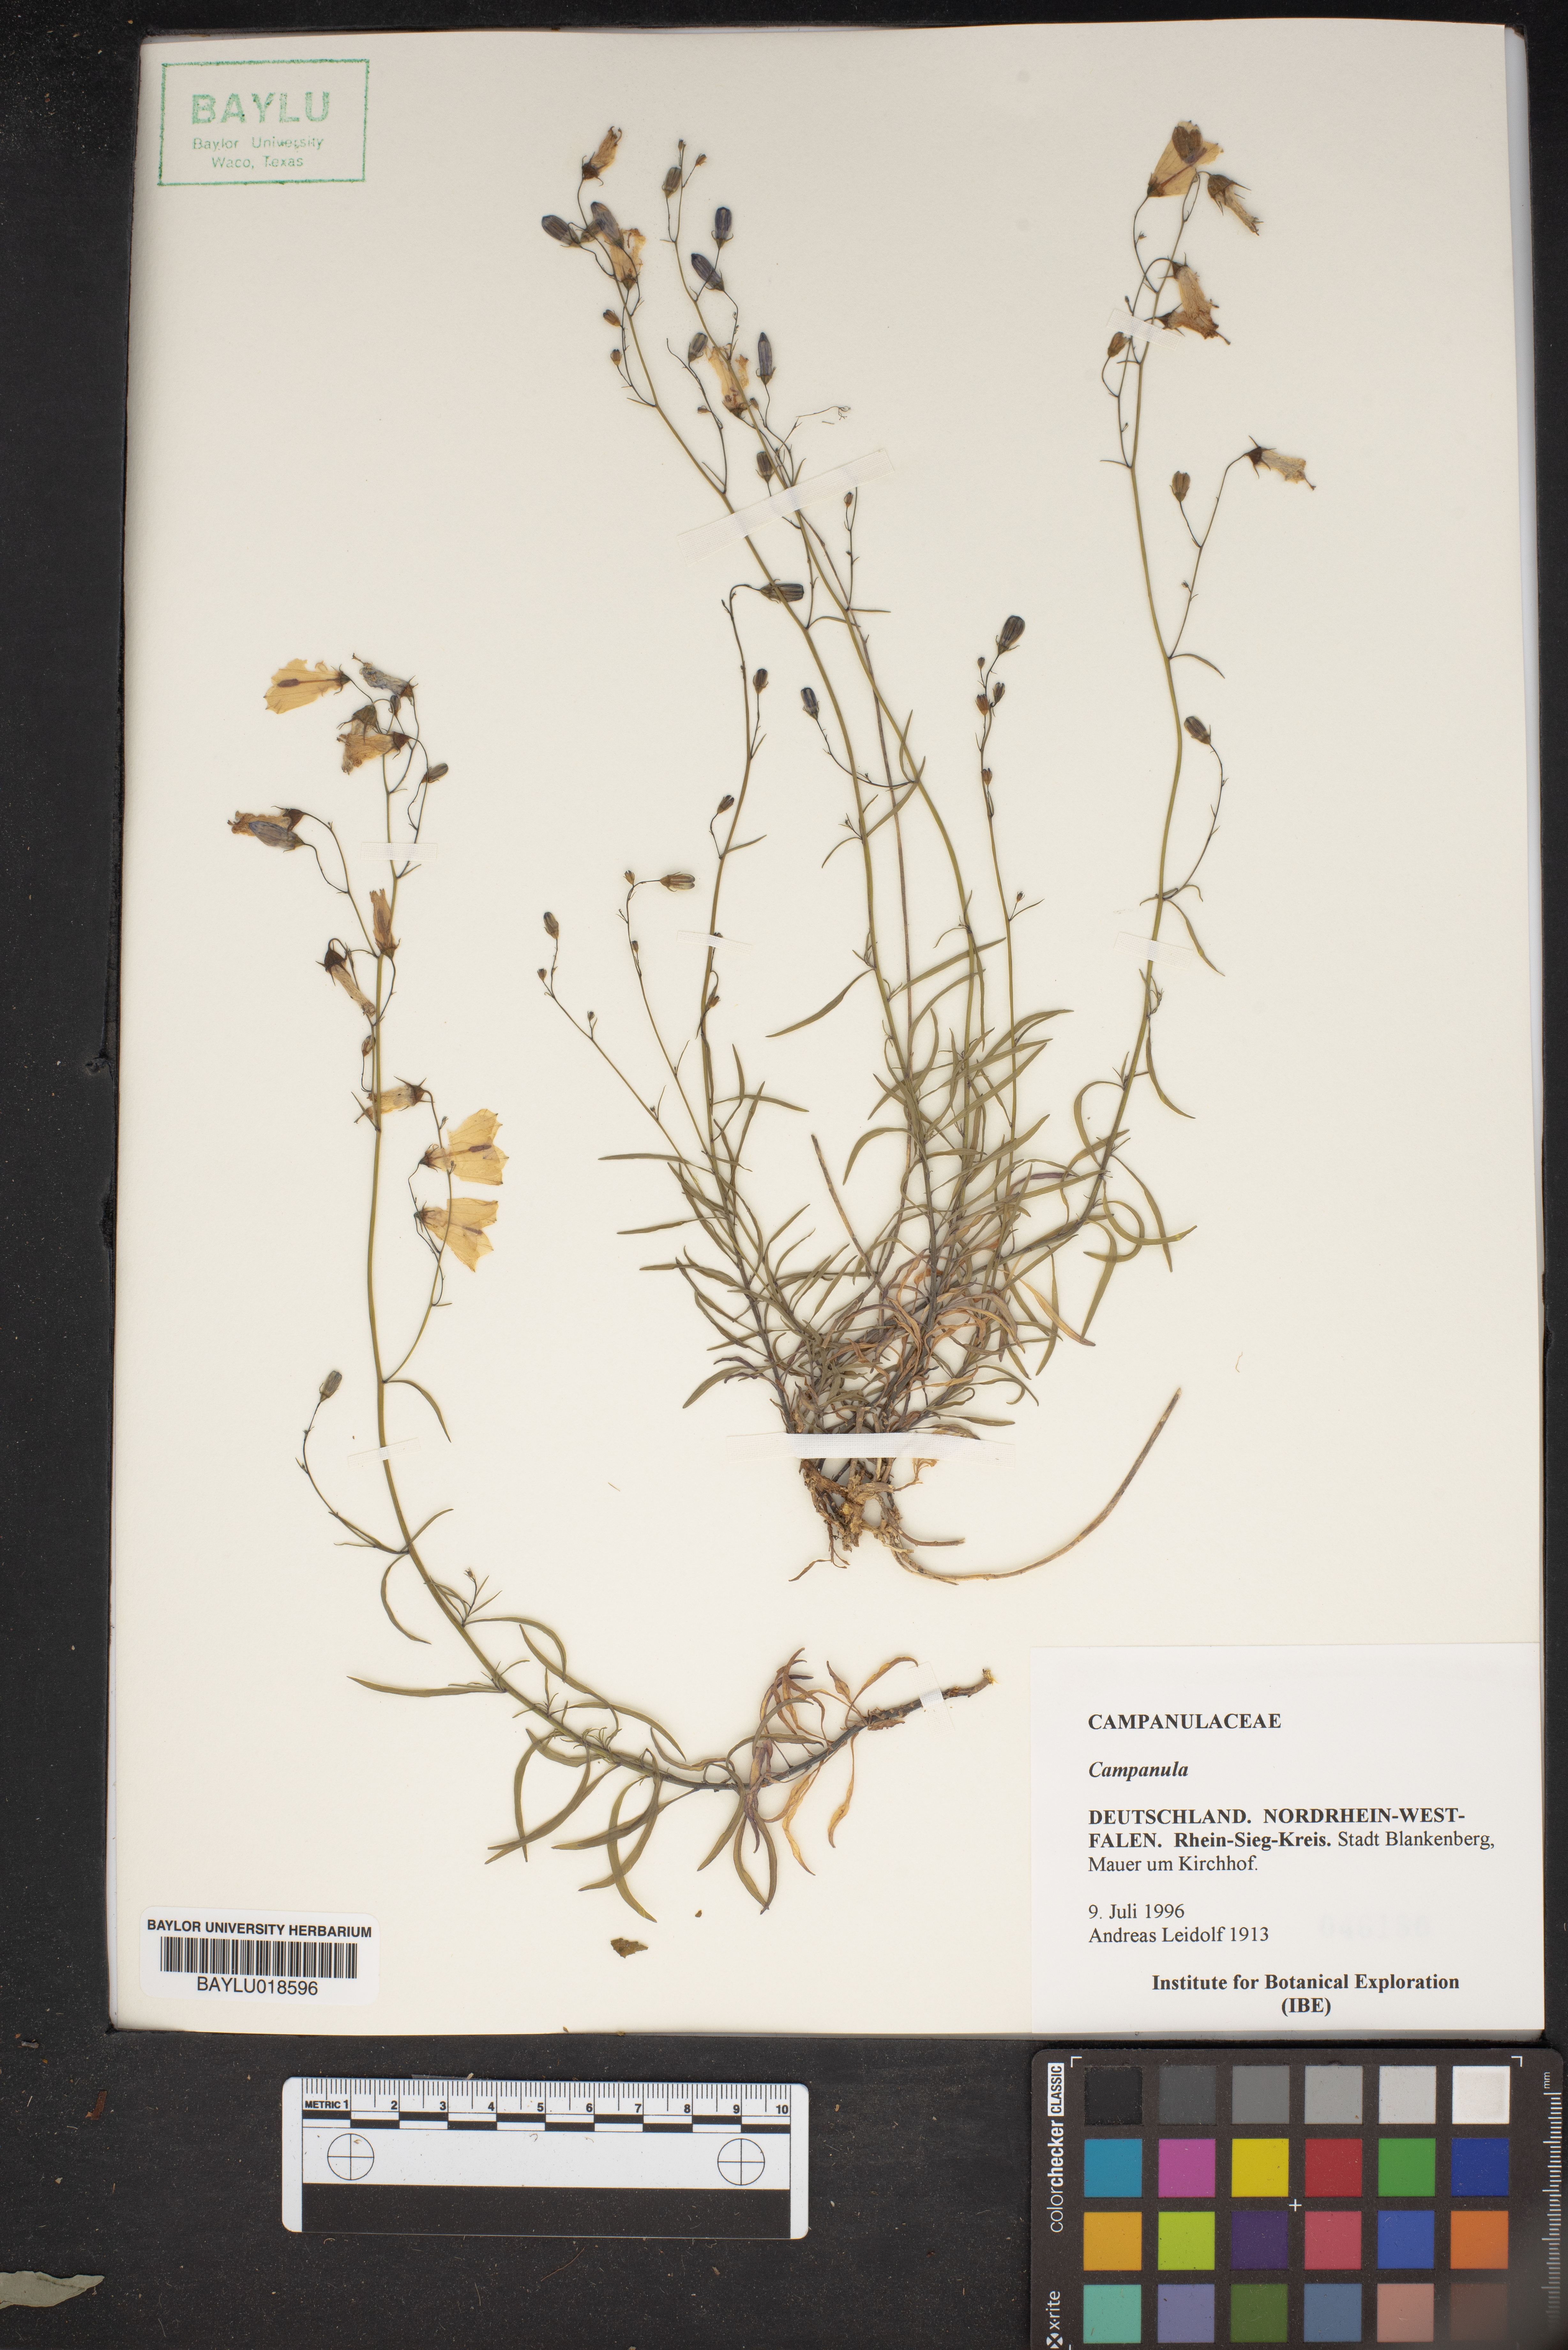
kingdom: Plantae
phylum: Tracheophyta
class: Magnoliopsida
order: Asterales
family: Campanulaceae
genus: Campanula
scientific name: Campanula
